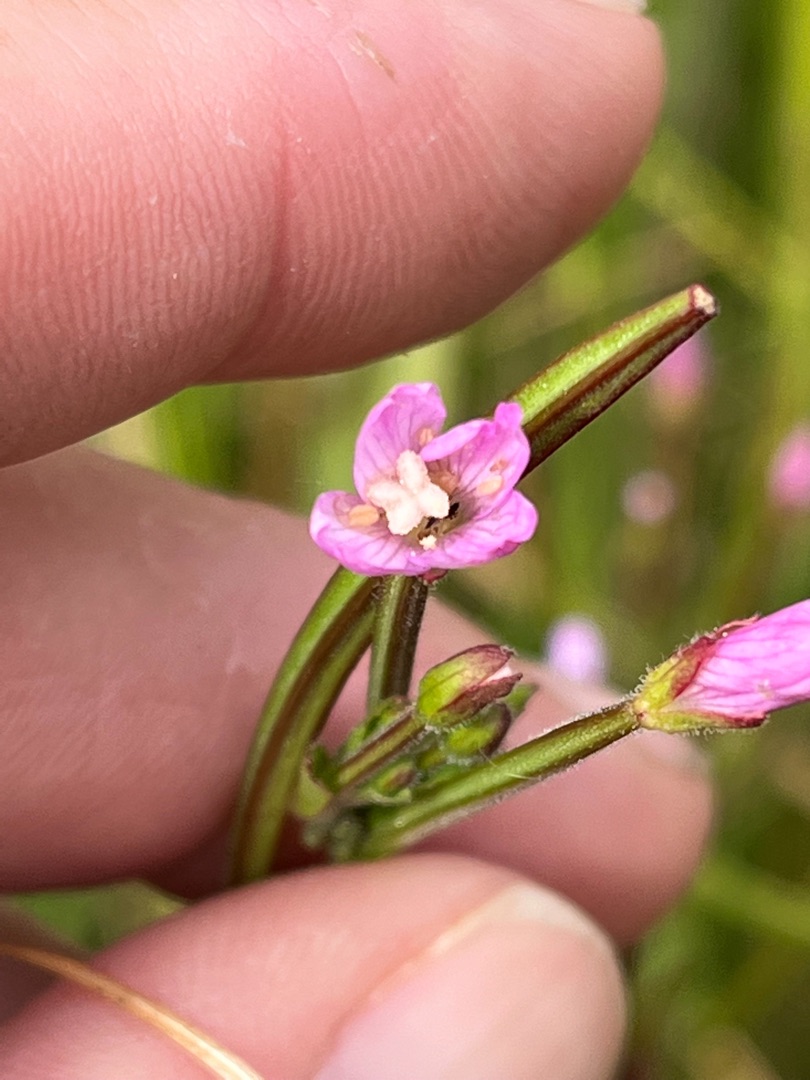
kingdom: Plantae
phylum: Tracheophyta
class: Magnoliopsida
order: Myrtales
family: Onagraceae
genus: Epilobium
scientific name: Epilobium parviflorum
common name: Dunet dueurt
